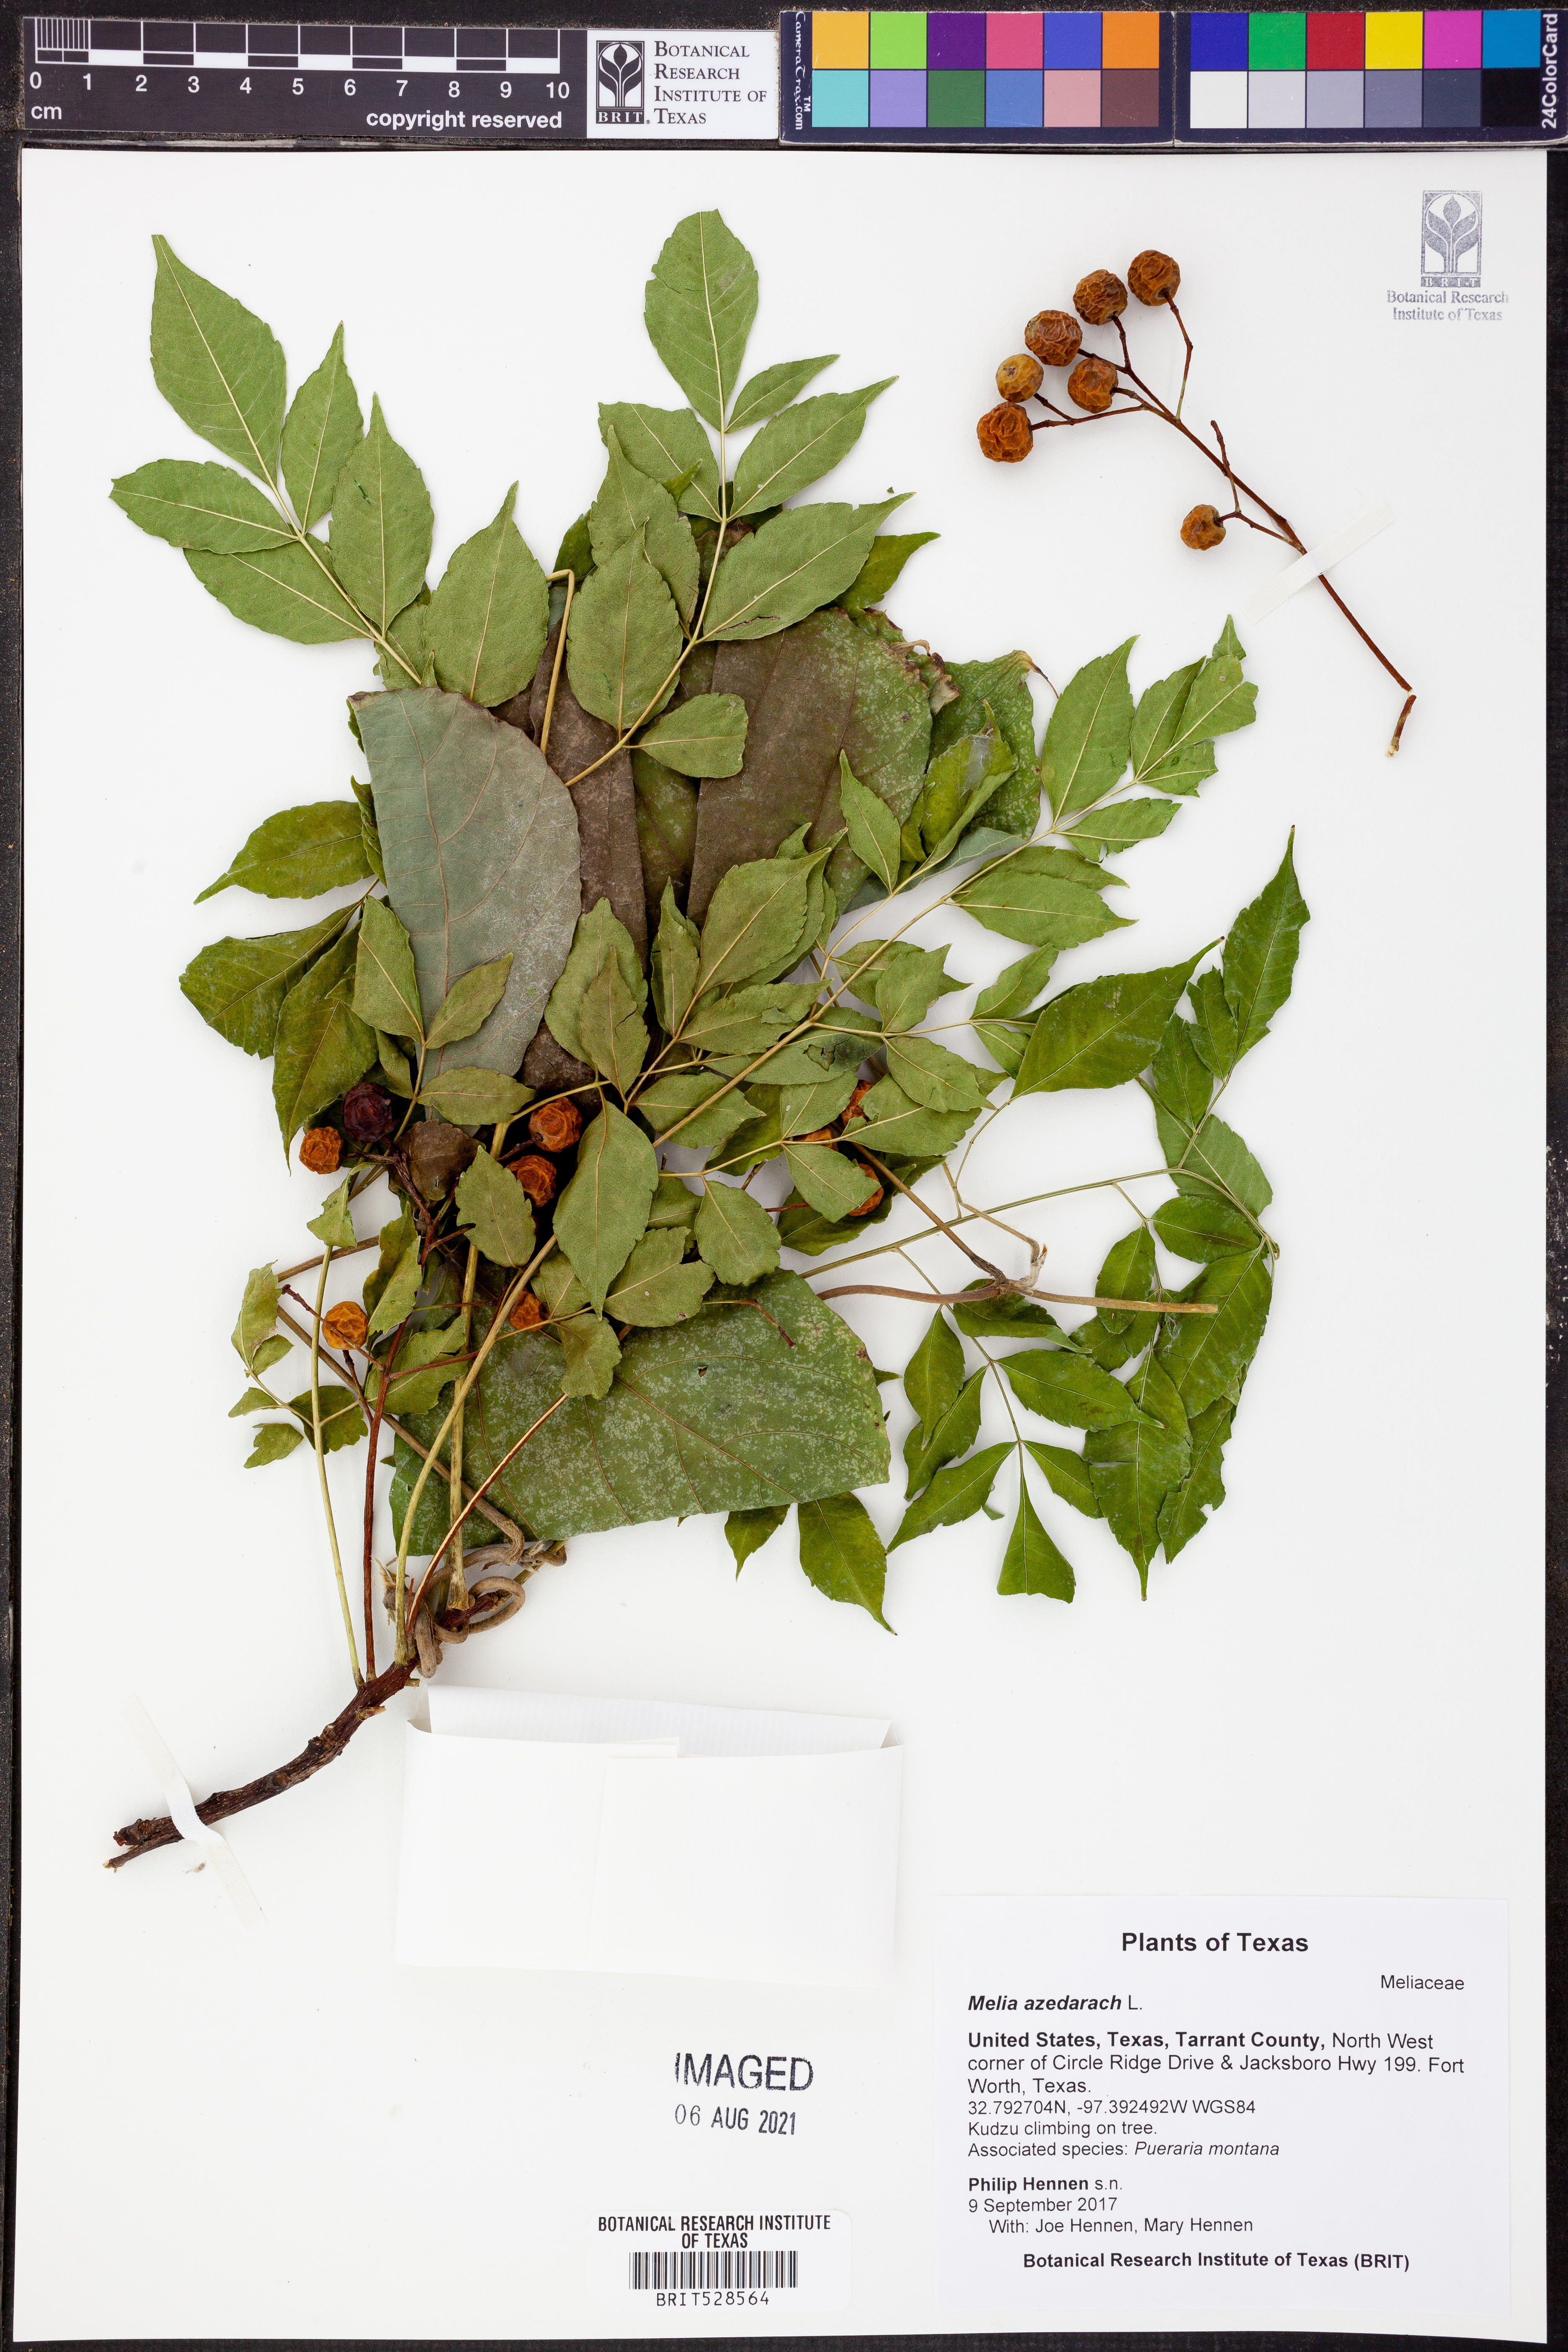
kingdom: Plantae
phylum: Tracheophyta
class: Magnoliopsida
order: Sapindales
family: Meliaceae
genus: Melia
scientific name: Melia azedarach
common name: Chinaberrytree
